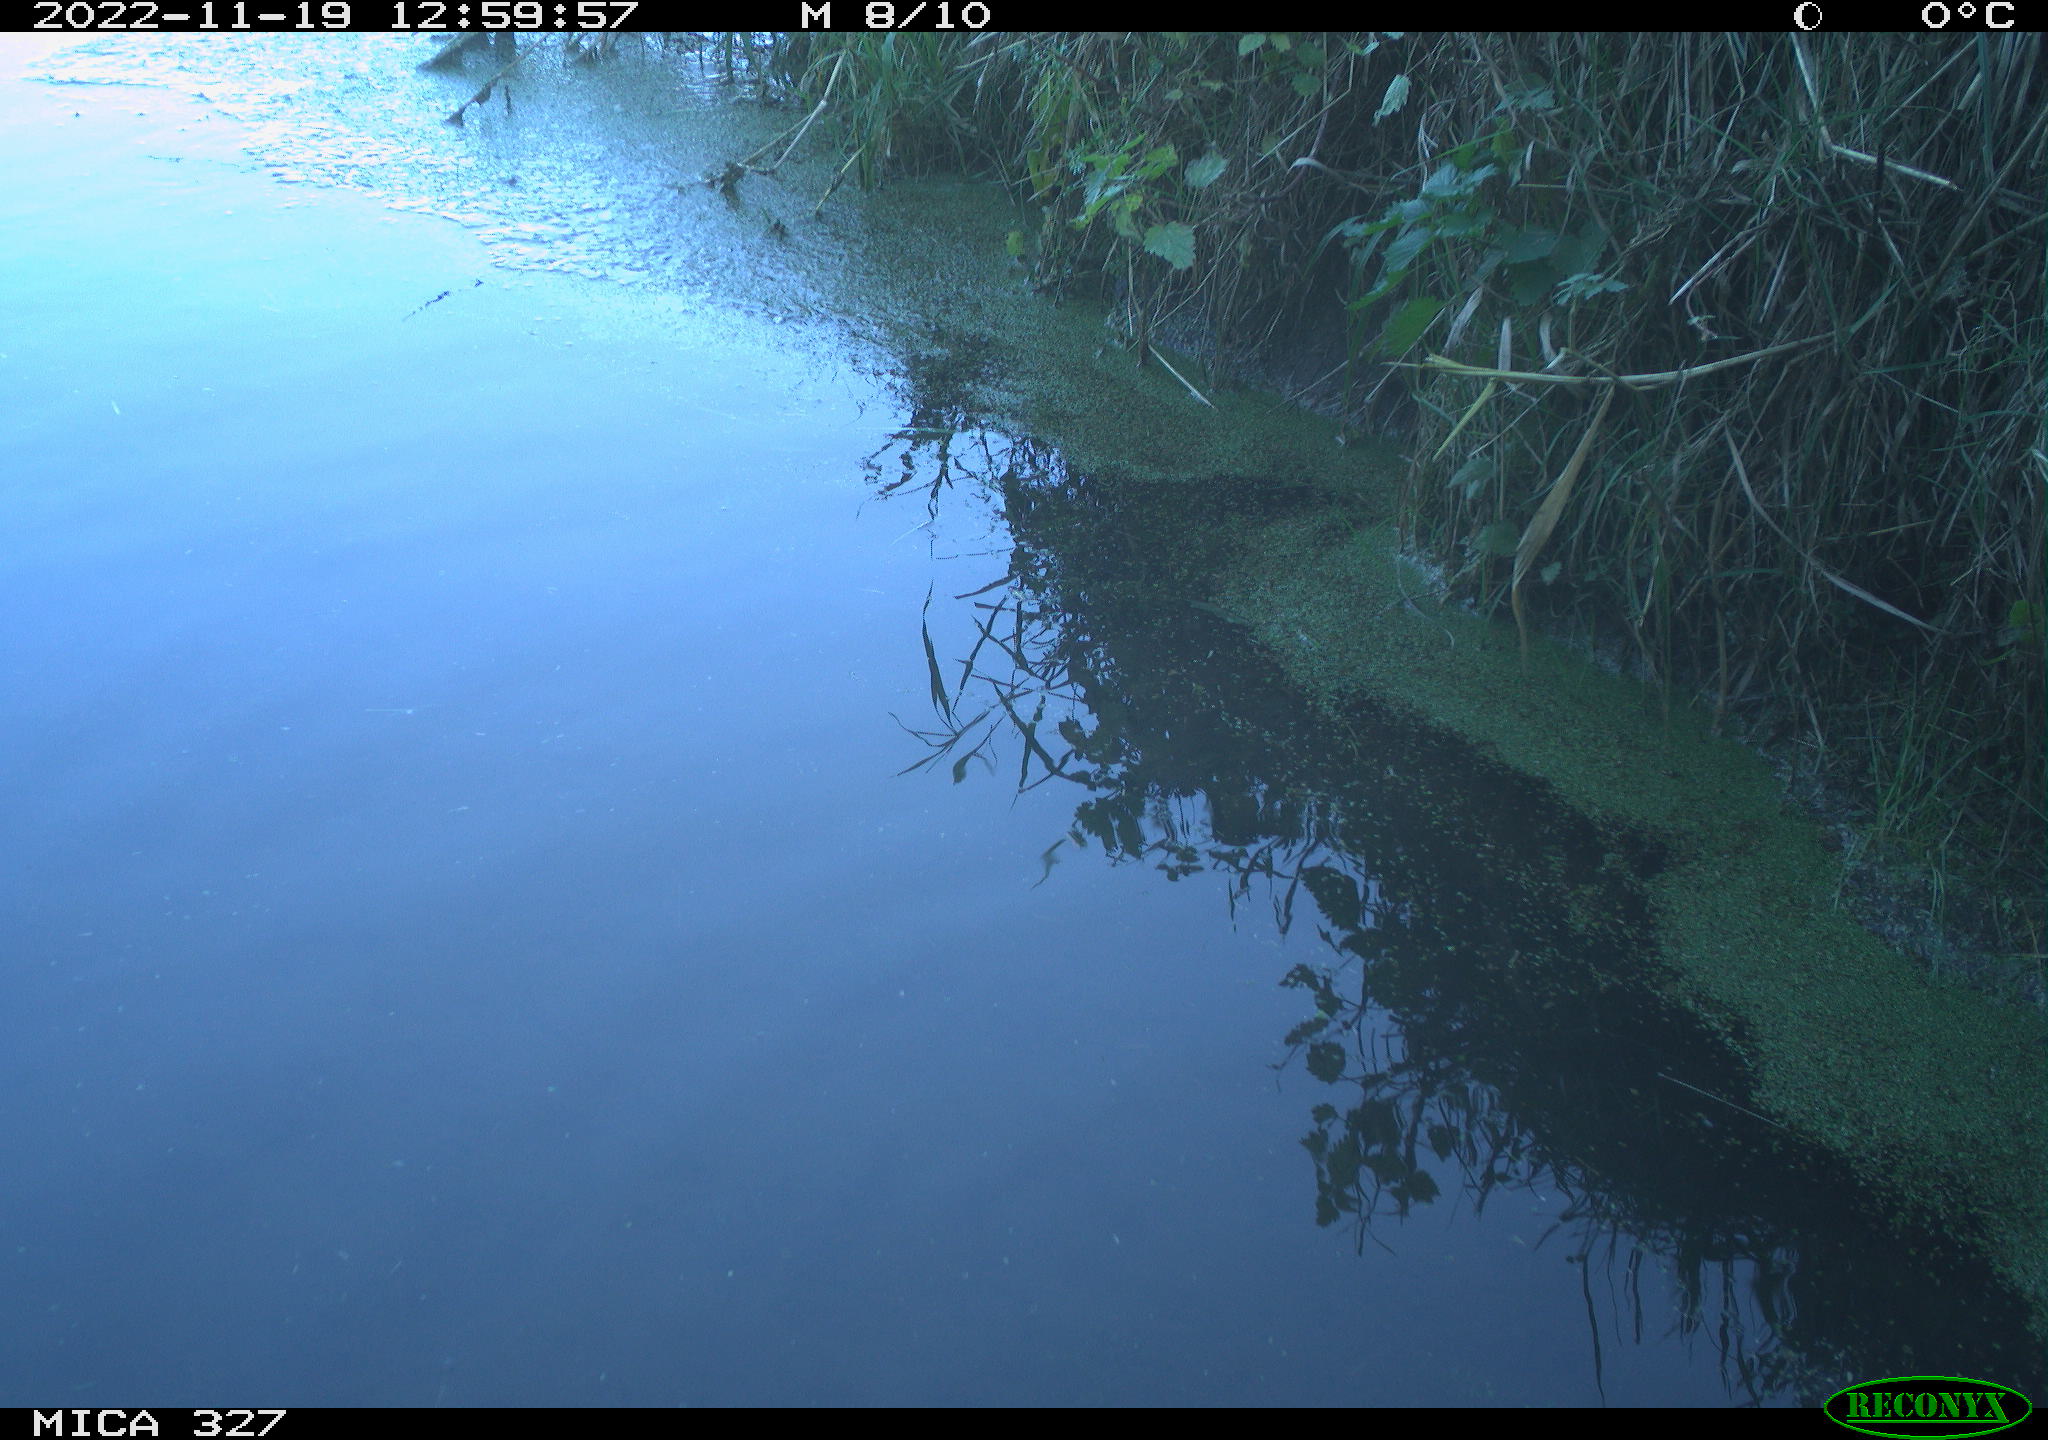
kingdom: Animalia
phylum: Chordata
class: Aves
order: Gruiformes
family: Rallidae
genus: Gallinula
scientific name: Gallinula chloropus
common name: Common moorhen
